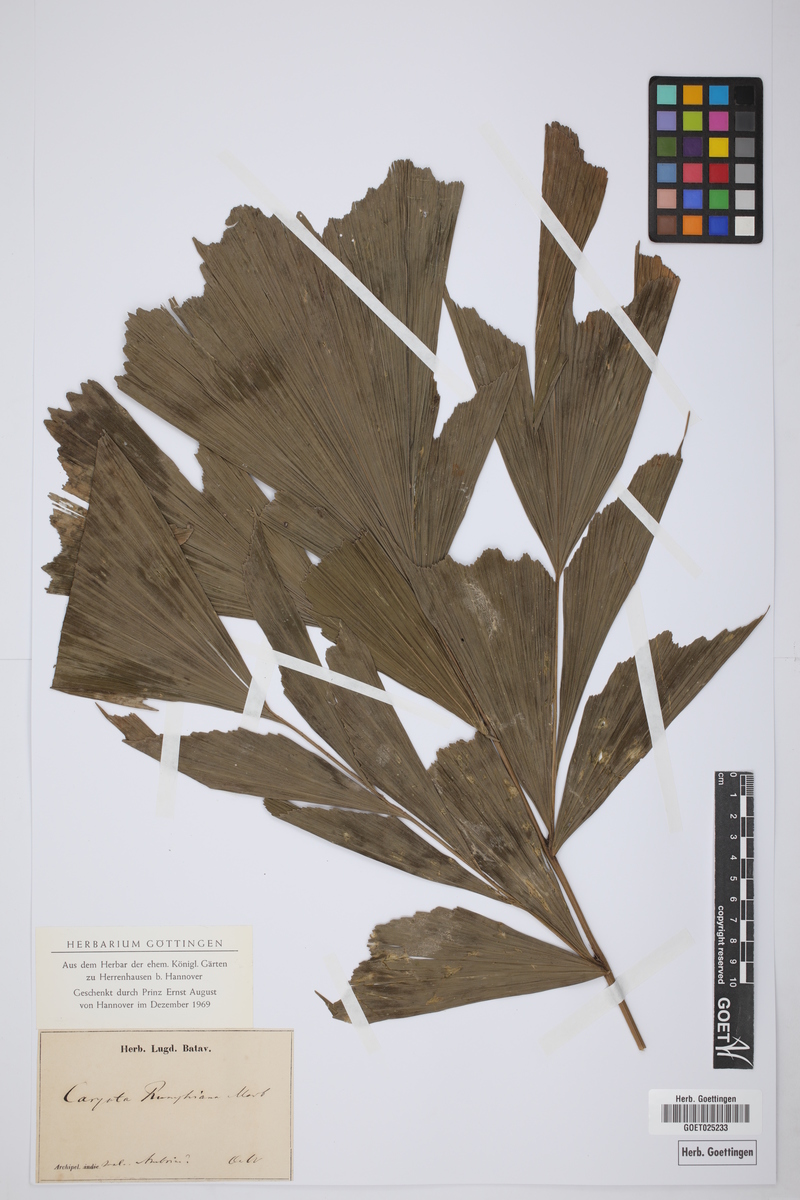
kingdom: Plantae
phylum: Tracheophyta
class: Liliopsida
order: Arecales
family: Arecaceae
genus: Caryota
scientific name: Caryota rumphiana
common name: Albert palm
